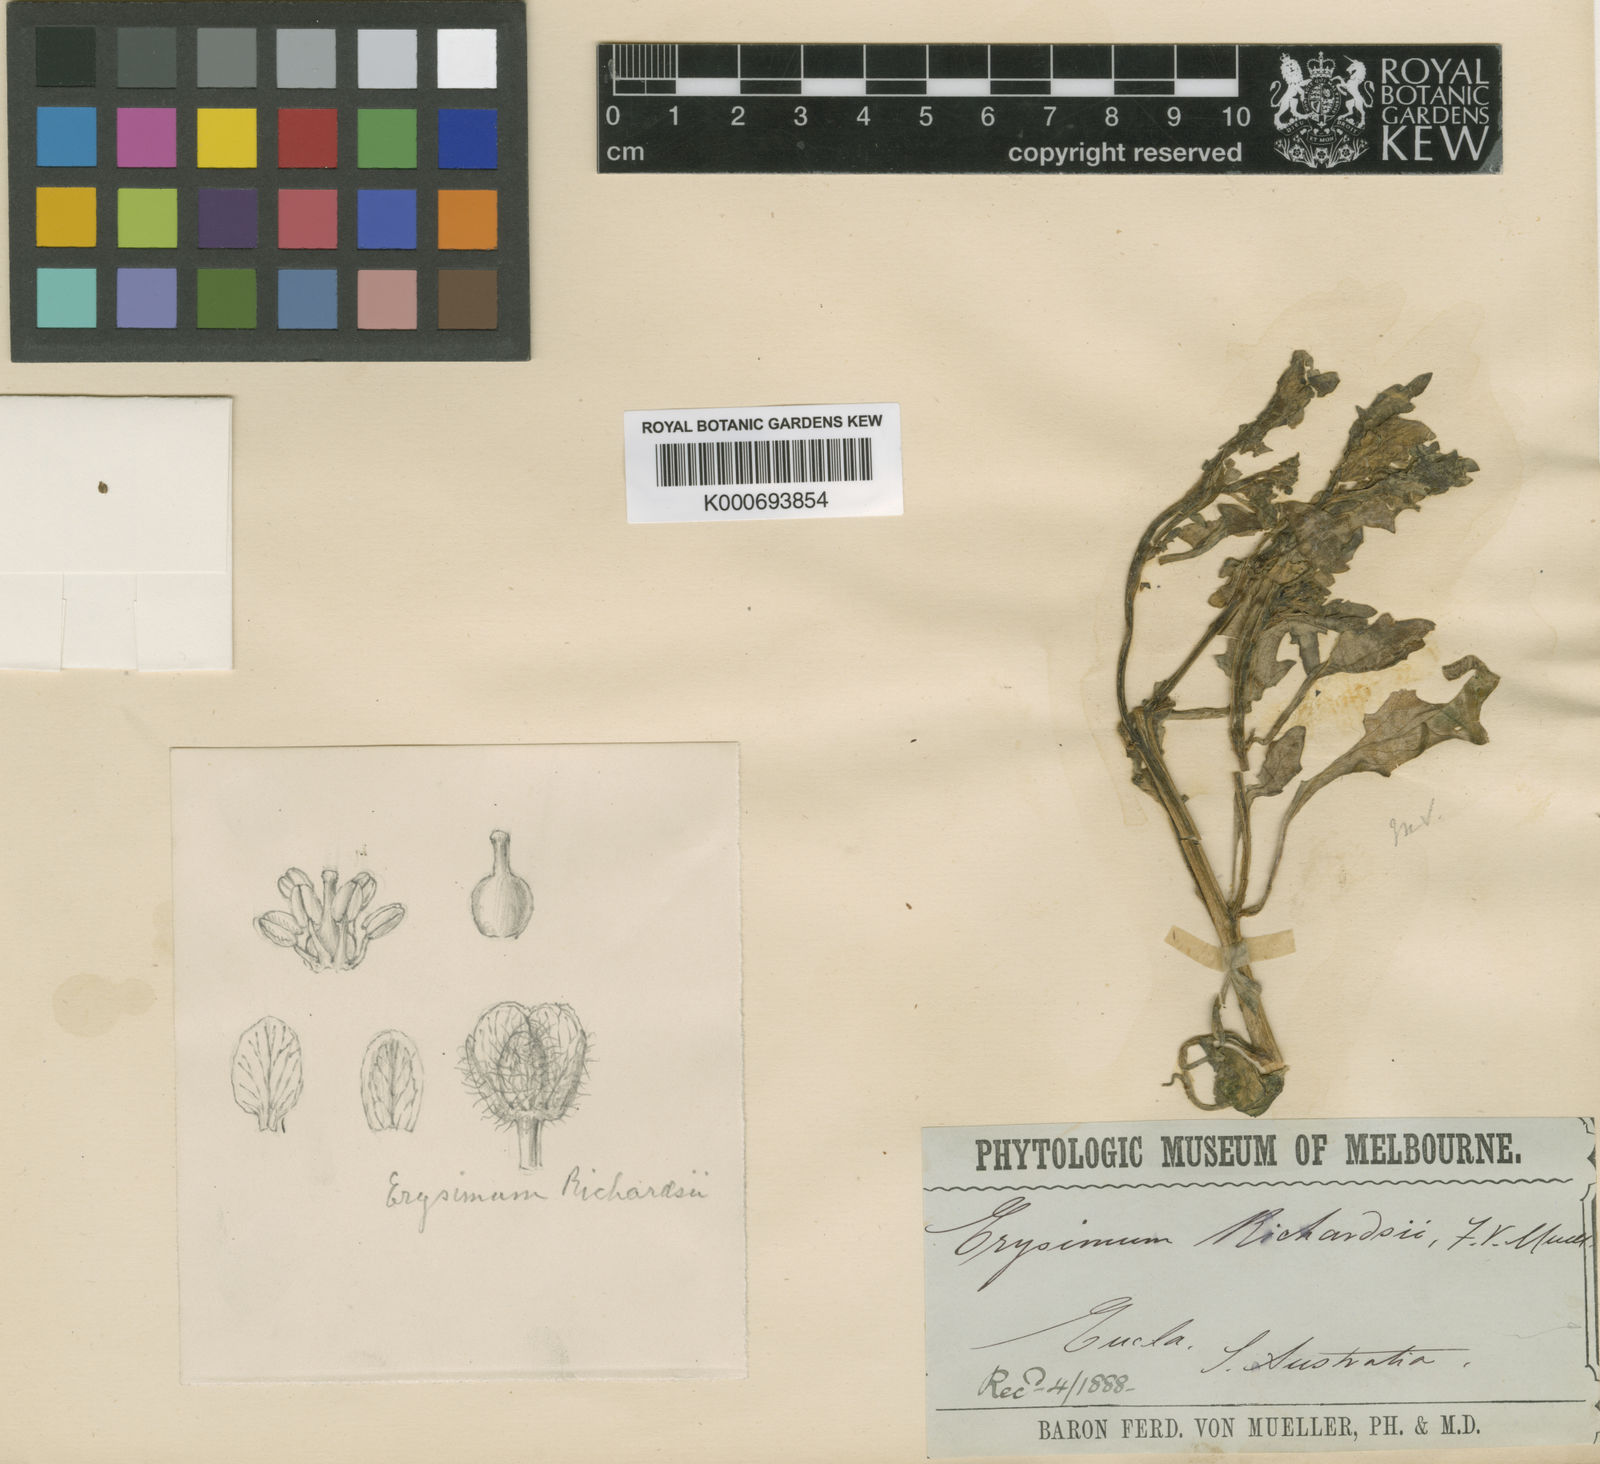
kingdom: Plantae
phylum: Tracheophyta
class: Magnoliopsida
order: Brassicales
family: Brassicaceae
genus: Erysimum
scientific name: Erysimum
